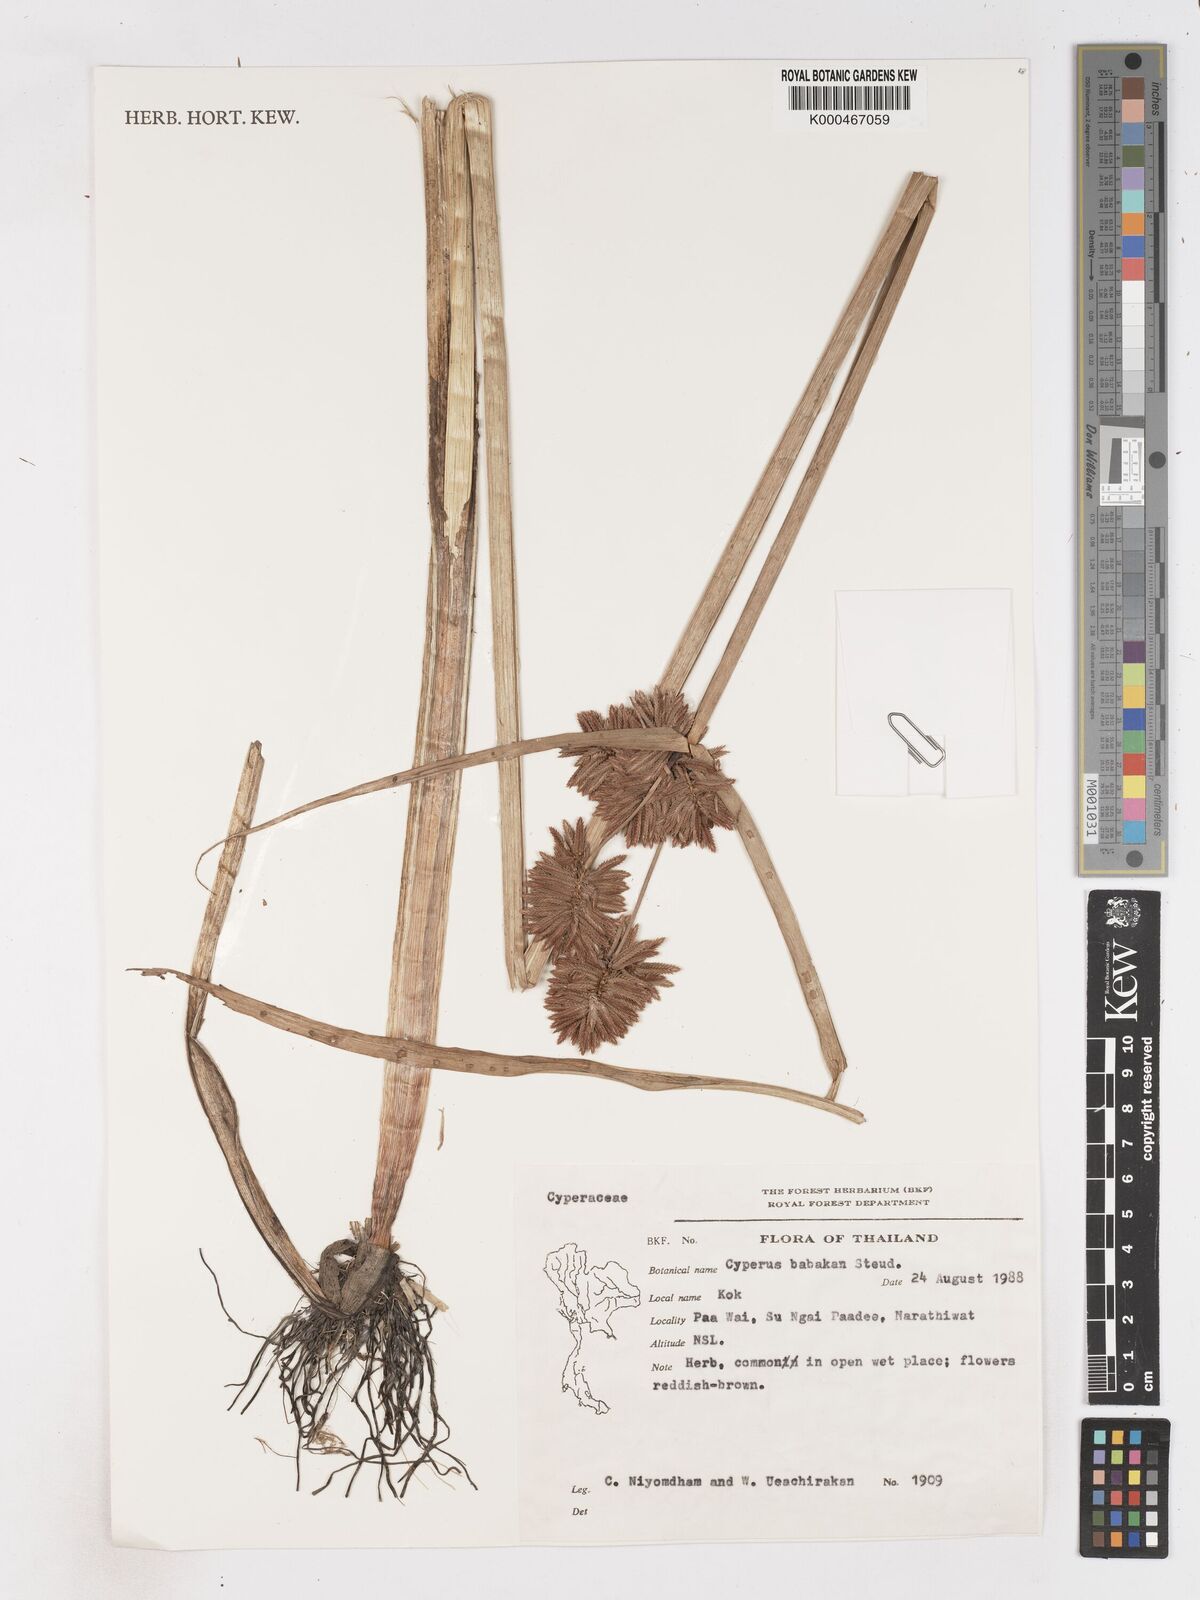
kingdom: Plantae
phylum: Tracheophyta
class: Liliopsida
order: Poales
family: Cyperaceae
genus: Cyperus
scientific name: Cyperus babakan
